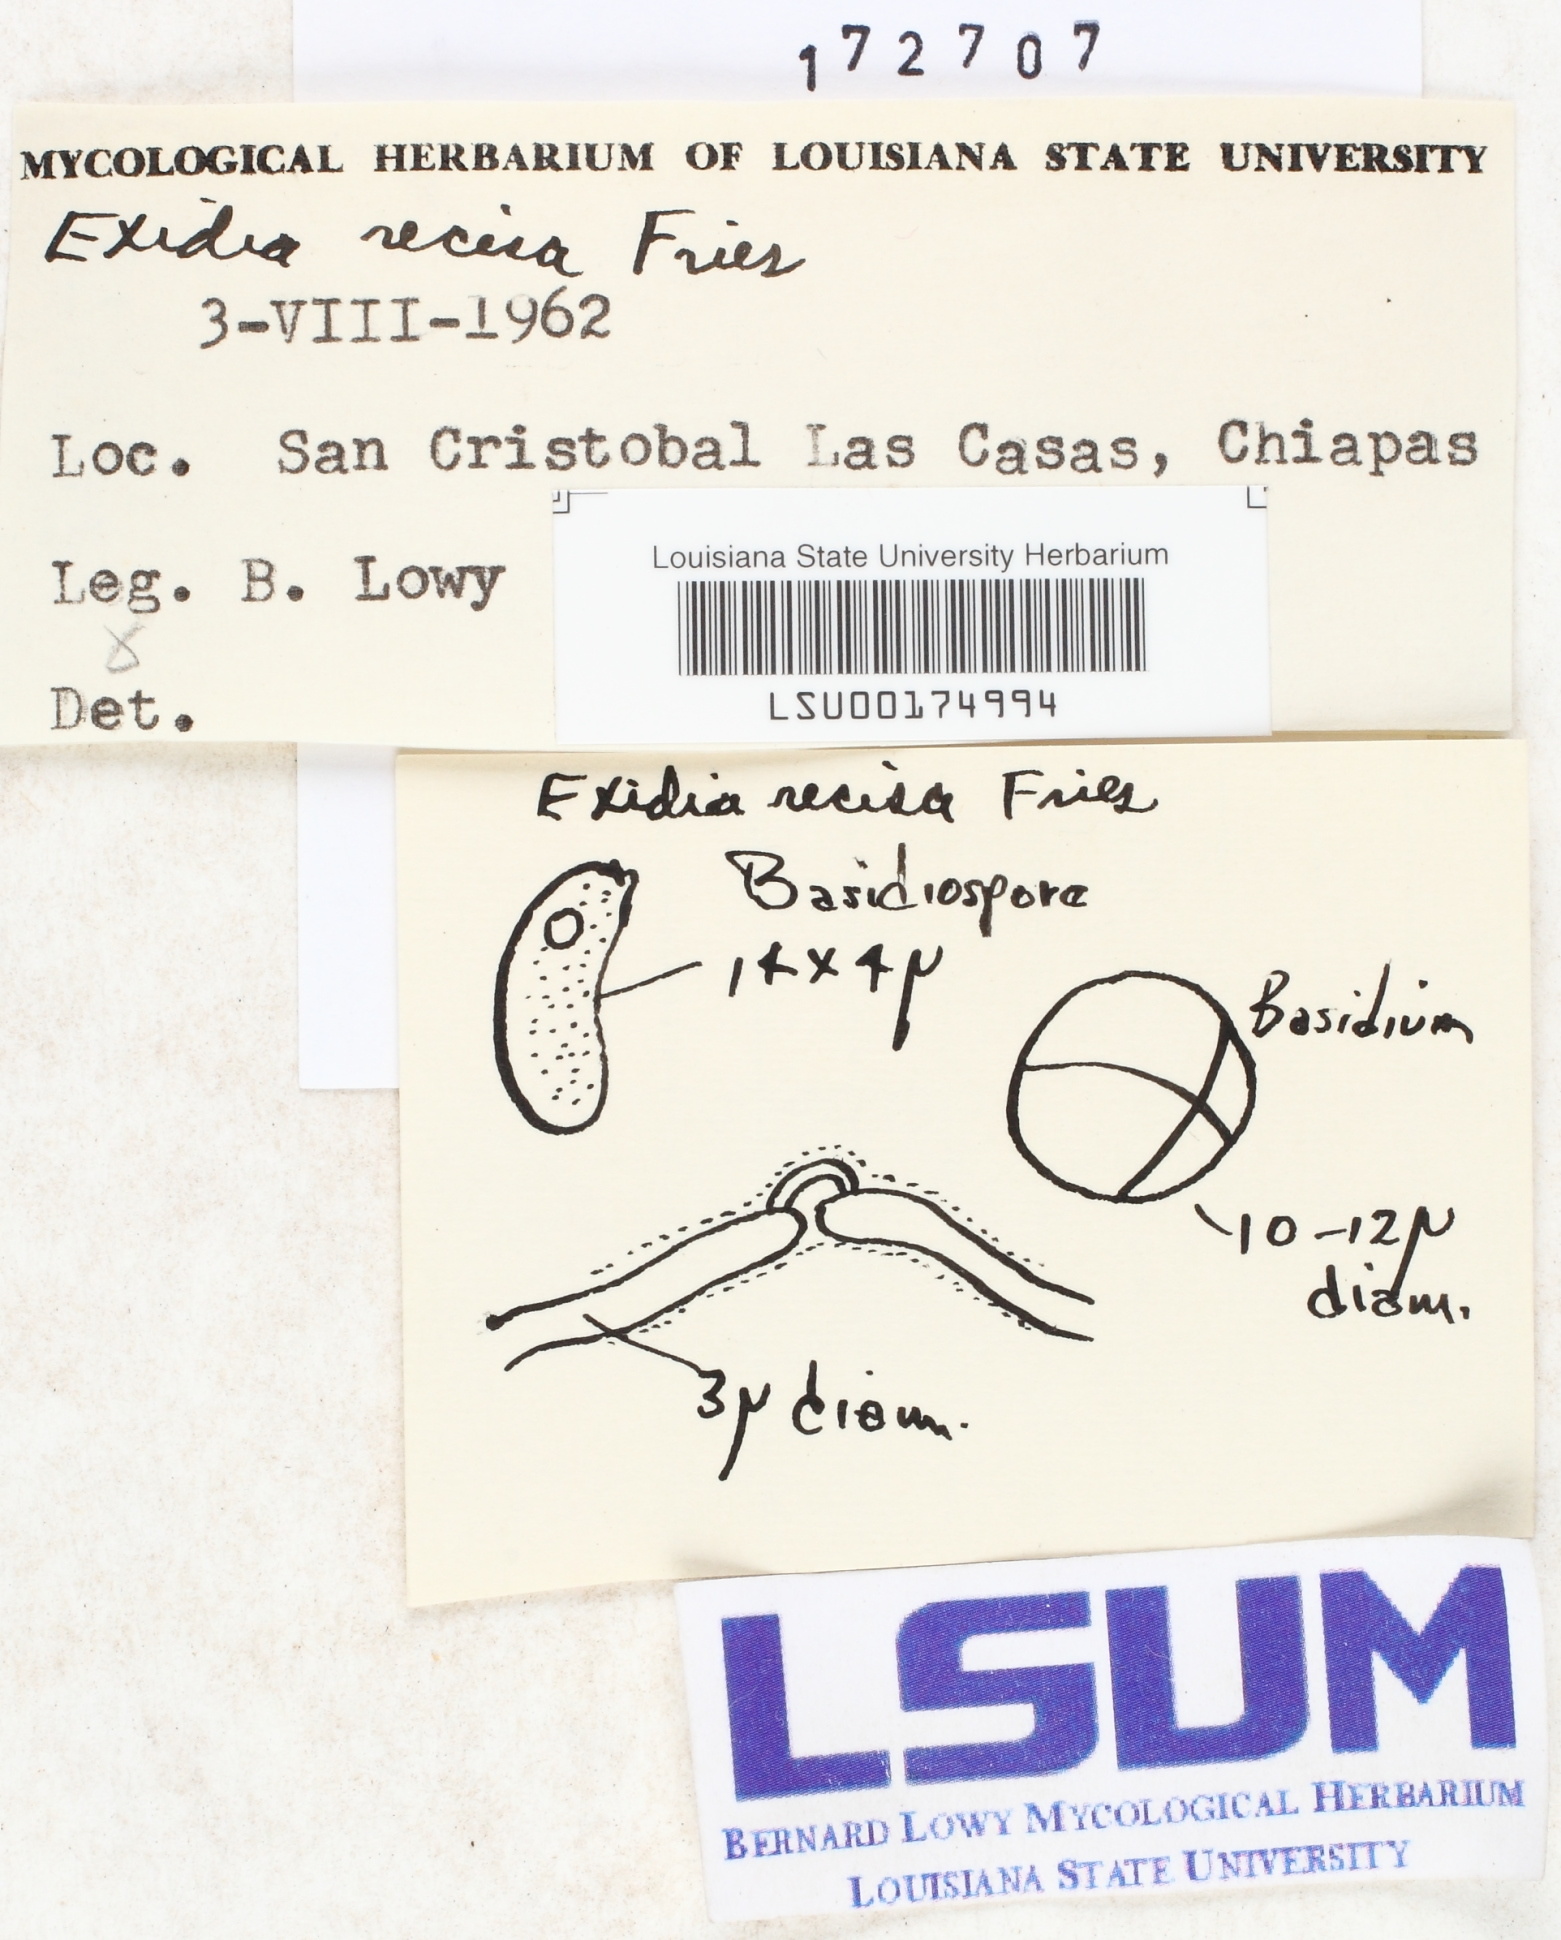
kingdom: Fungi
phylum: Basidiomycota
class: Agaricomycetes
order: Auriculariales
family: Auriculariaceae
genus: Exidia
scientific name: Exidia recisa
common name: Amber jelly
